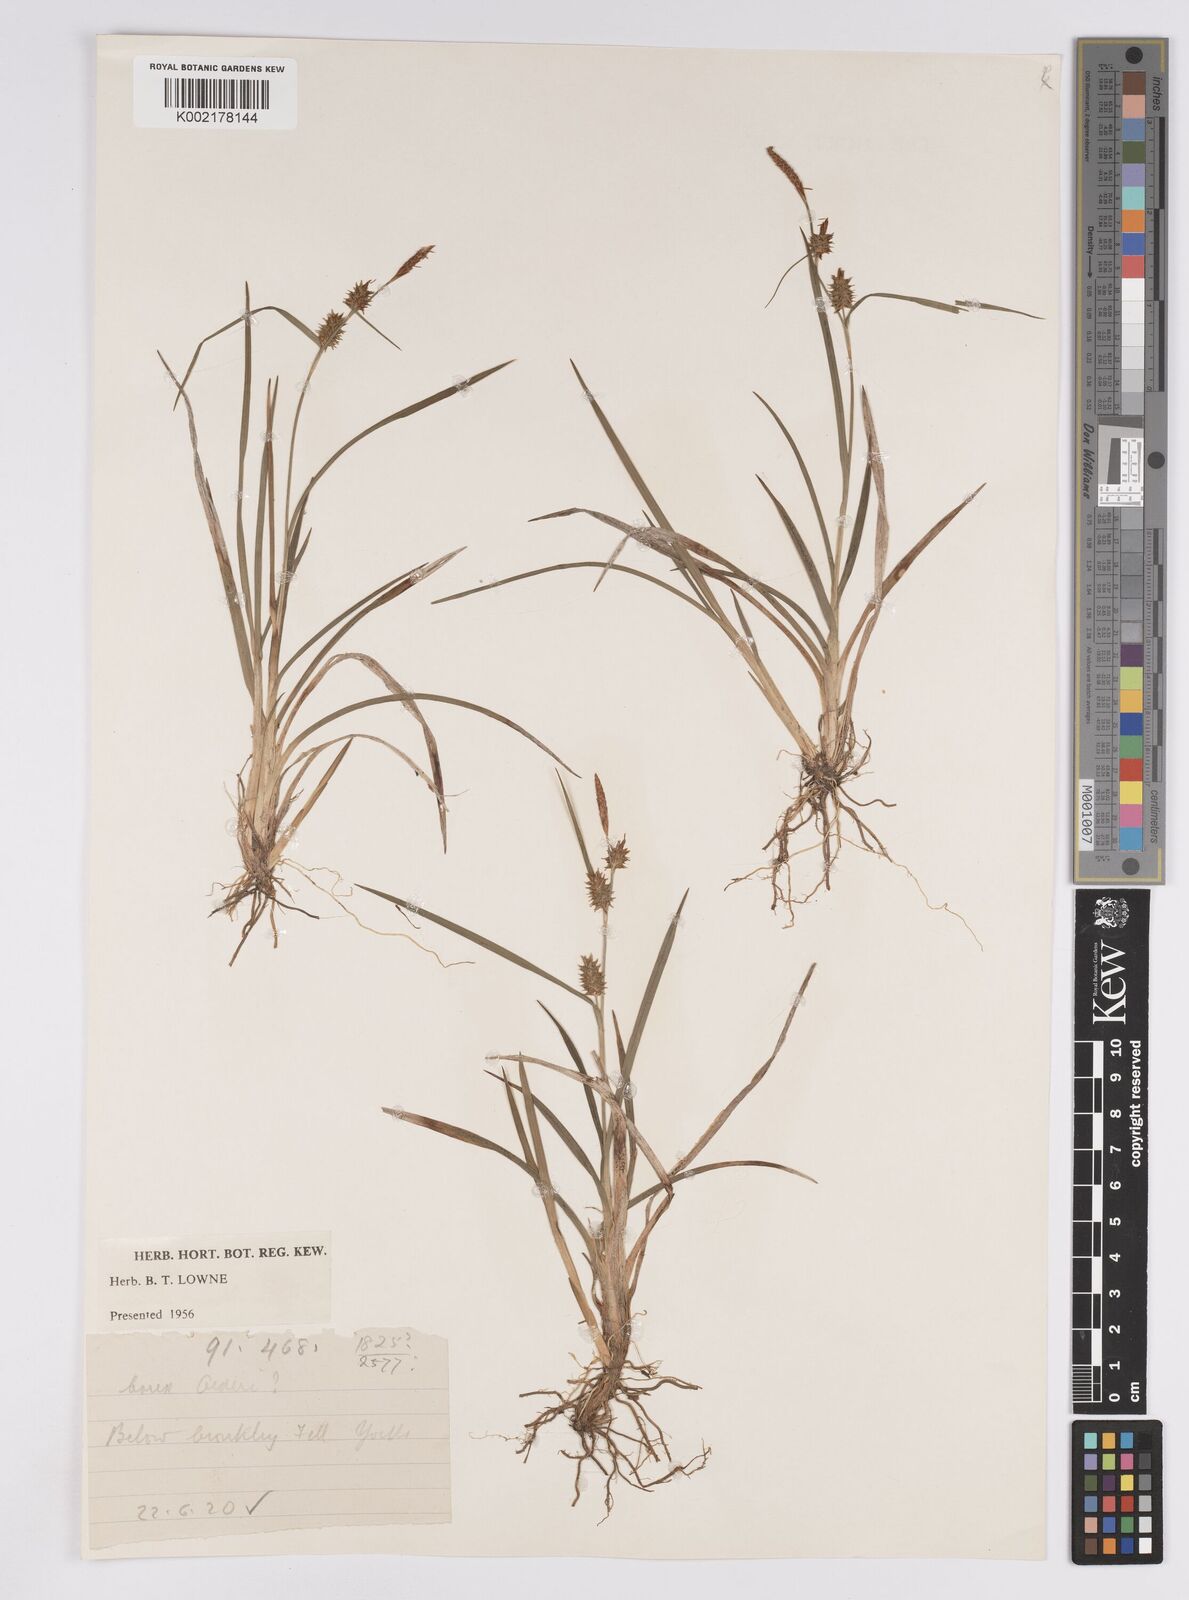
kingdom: Plantae
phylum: Tracheophyta
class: Liliopsida
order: Poales
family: Cyperaceae
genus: Carex
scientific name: Carex demissa
